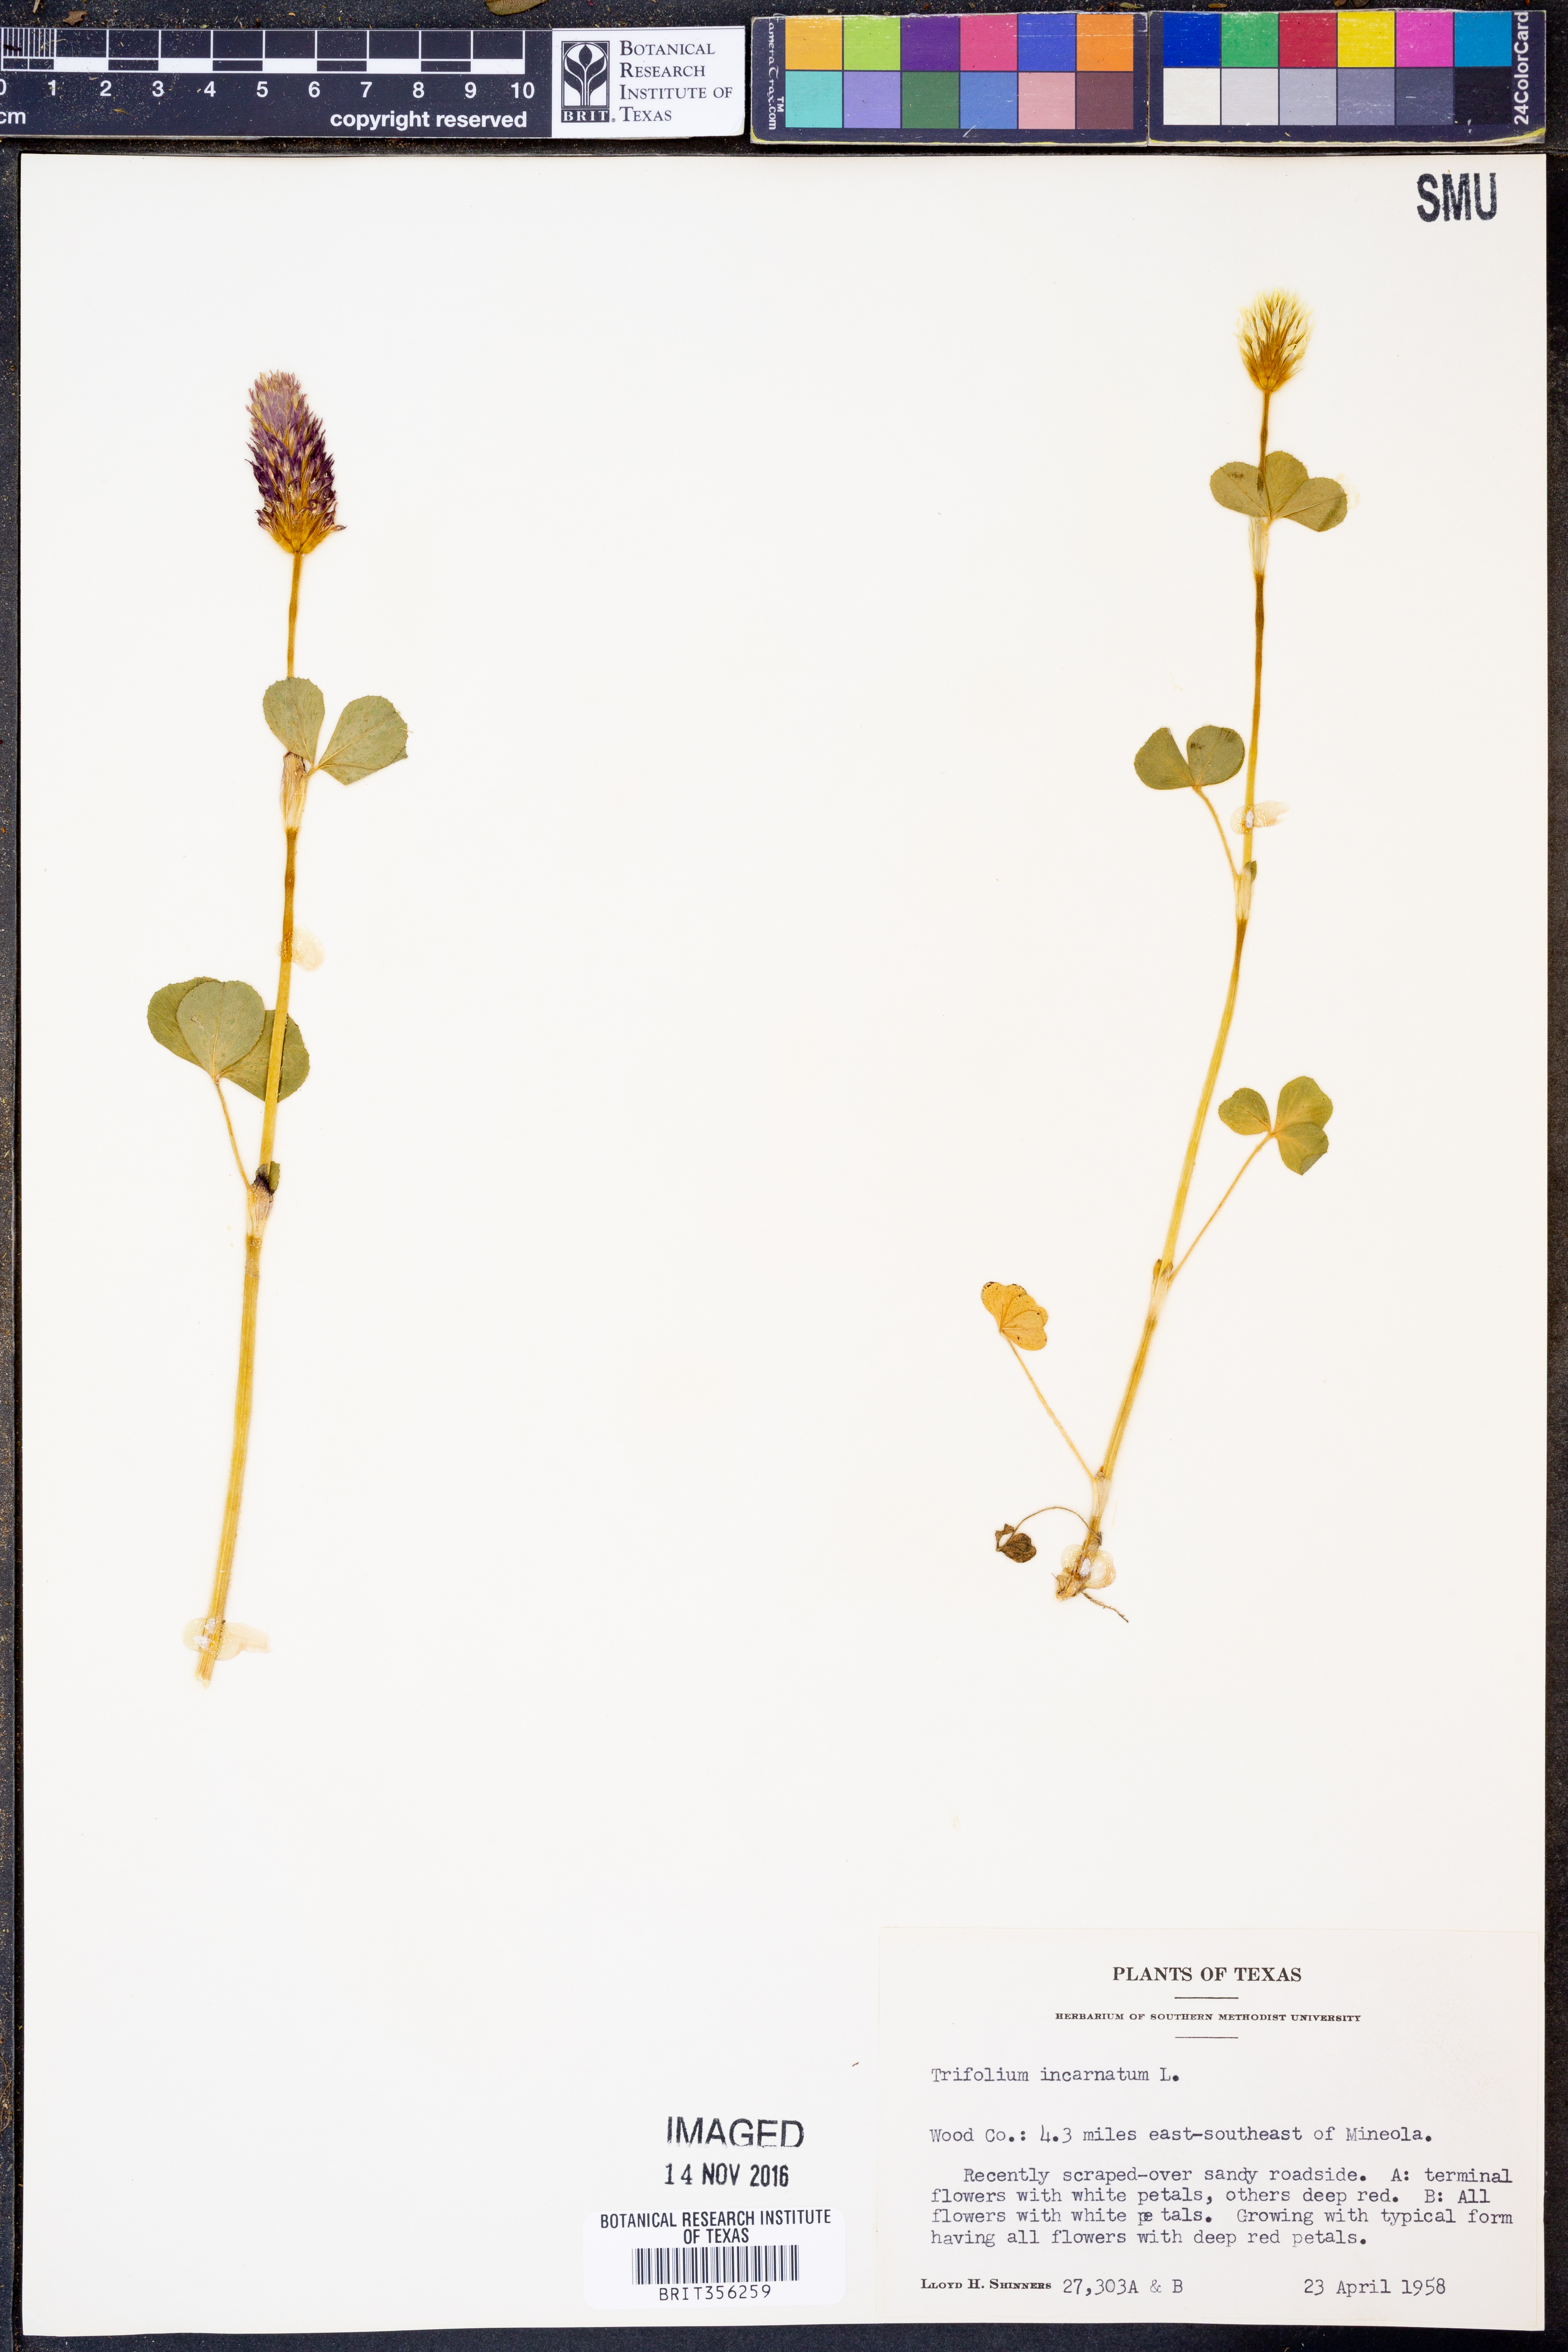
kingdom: Plantae
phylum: Tracheophyta
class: Magnoliopsida
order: Fabales
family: Fabaceae
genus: Trifolium
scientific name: Trifolium incarnatum
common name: Crimson clover
